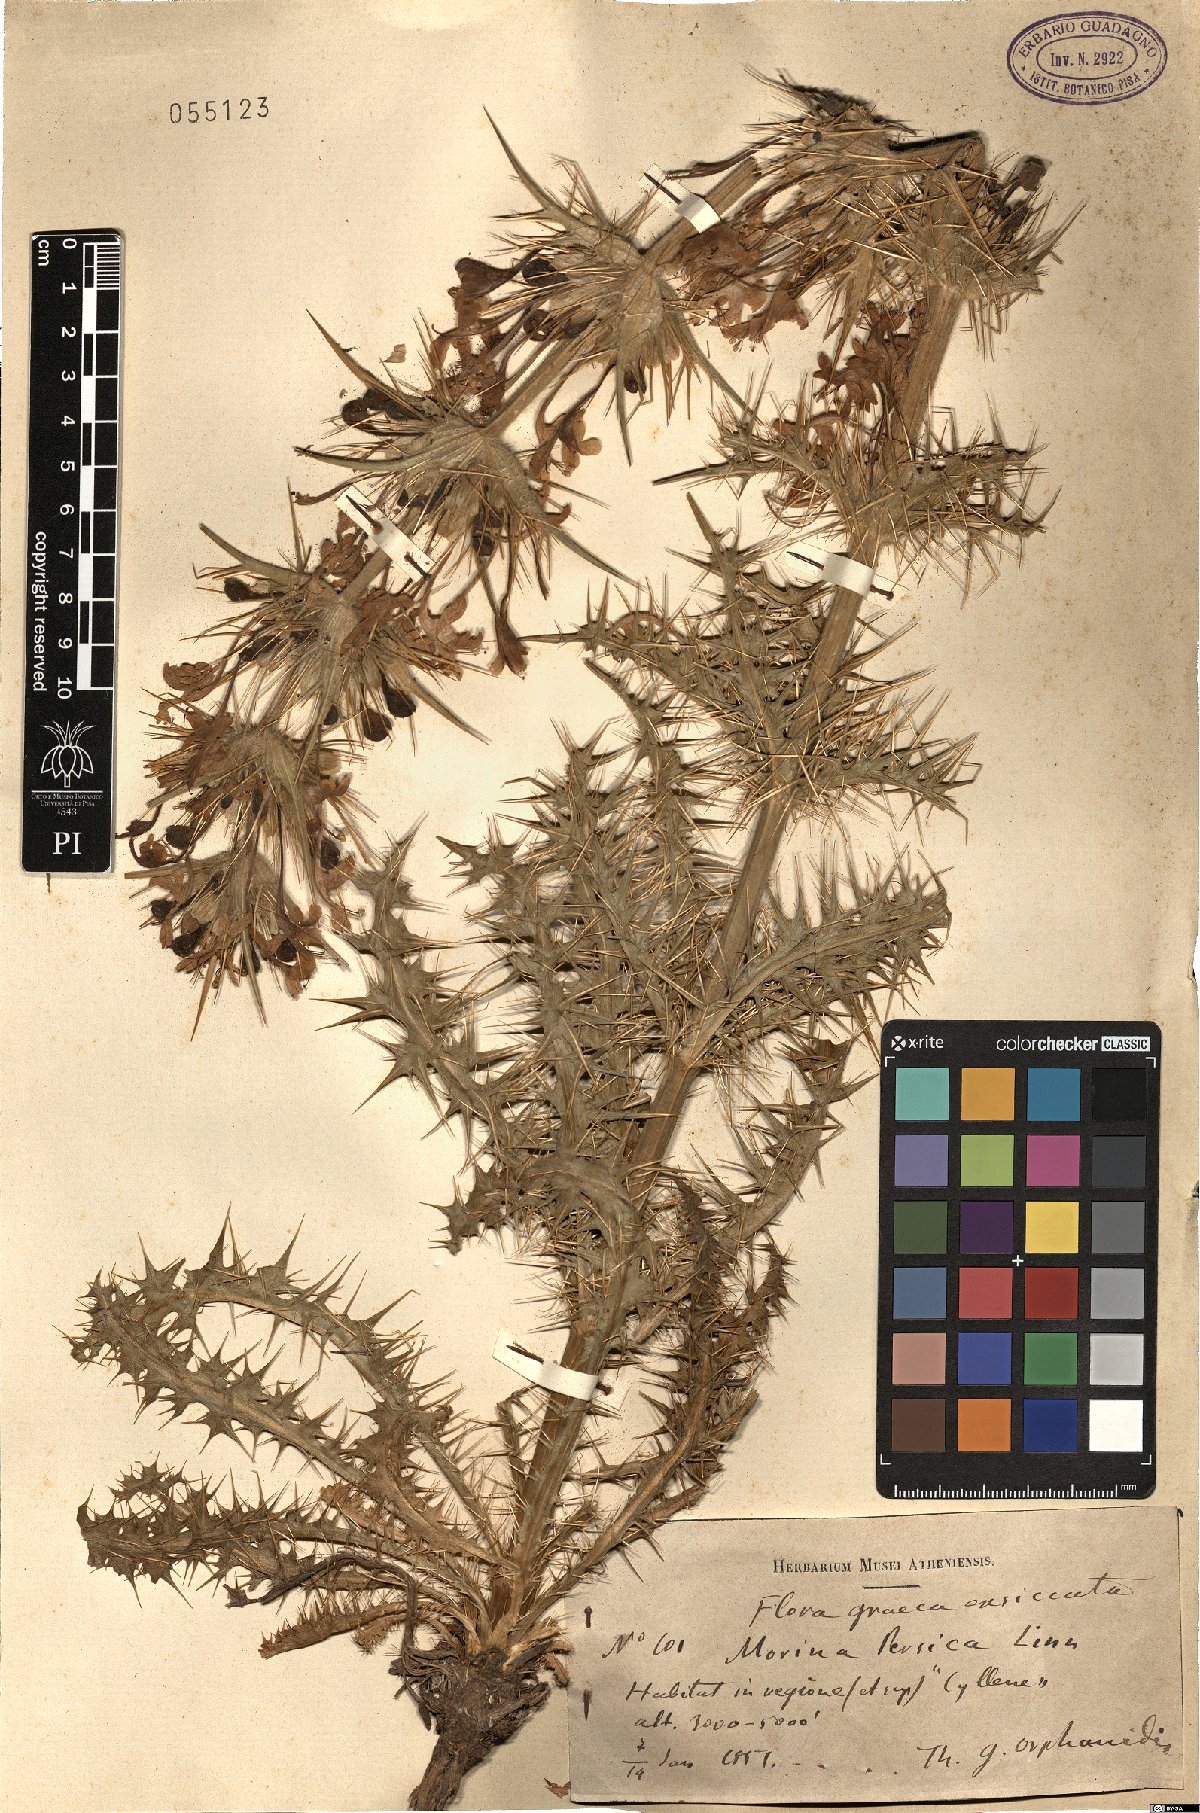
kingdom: Plantae
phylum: Tracheophyta
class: Magnoliopsida
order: Dipsacales
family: Caprifoliaceae
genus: Morina
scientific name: Morina persica
